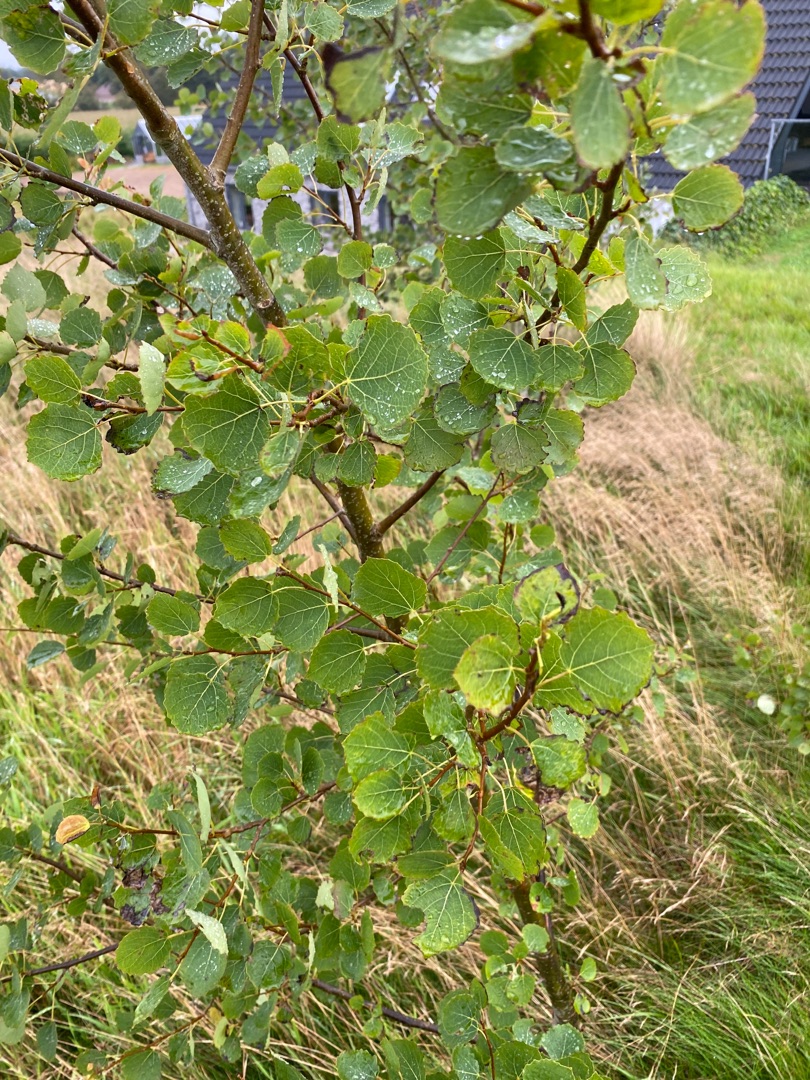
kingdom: Plantae
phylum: Tracheophyta
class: Magnoliopsida
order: Malpighiales
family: Salicaceae
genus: Populus
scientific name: Populus tremula
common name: Bævreasp
